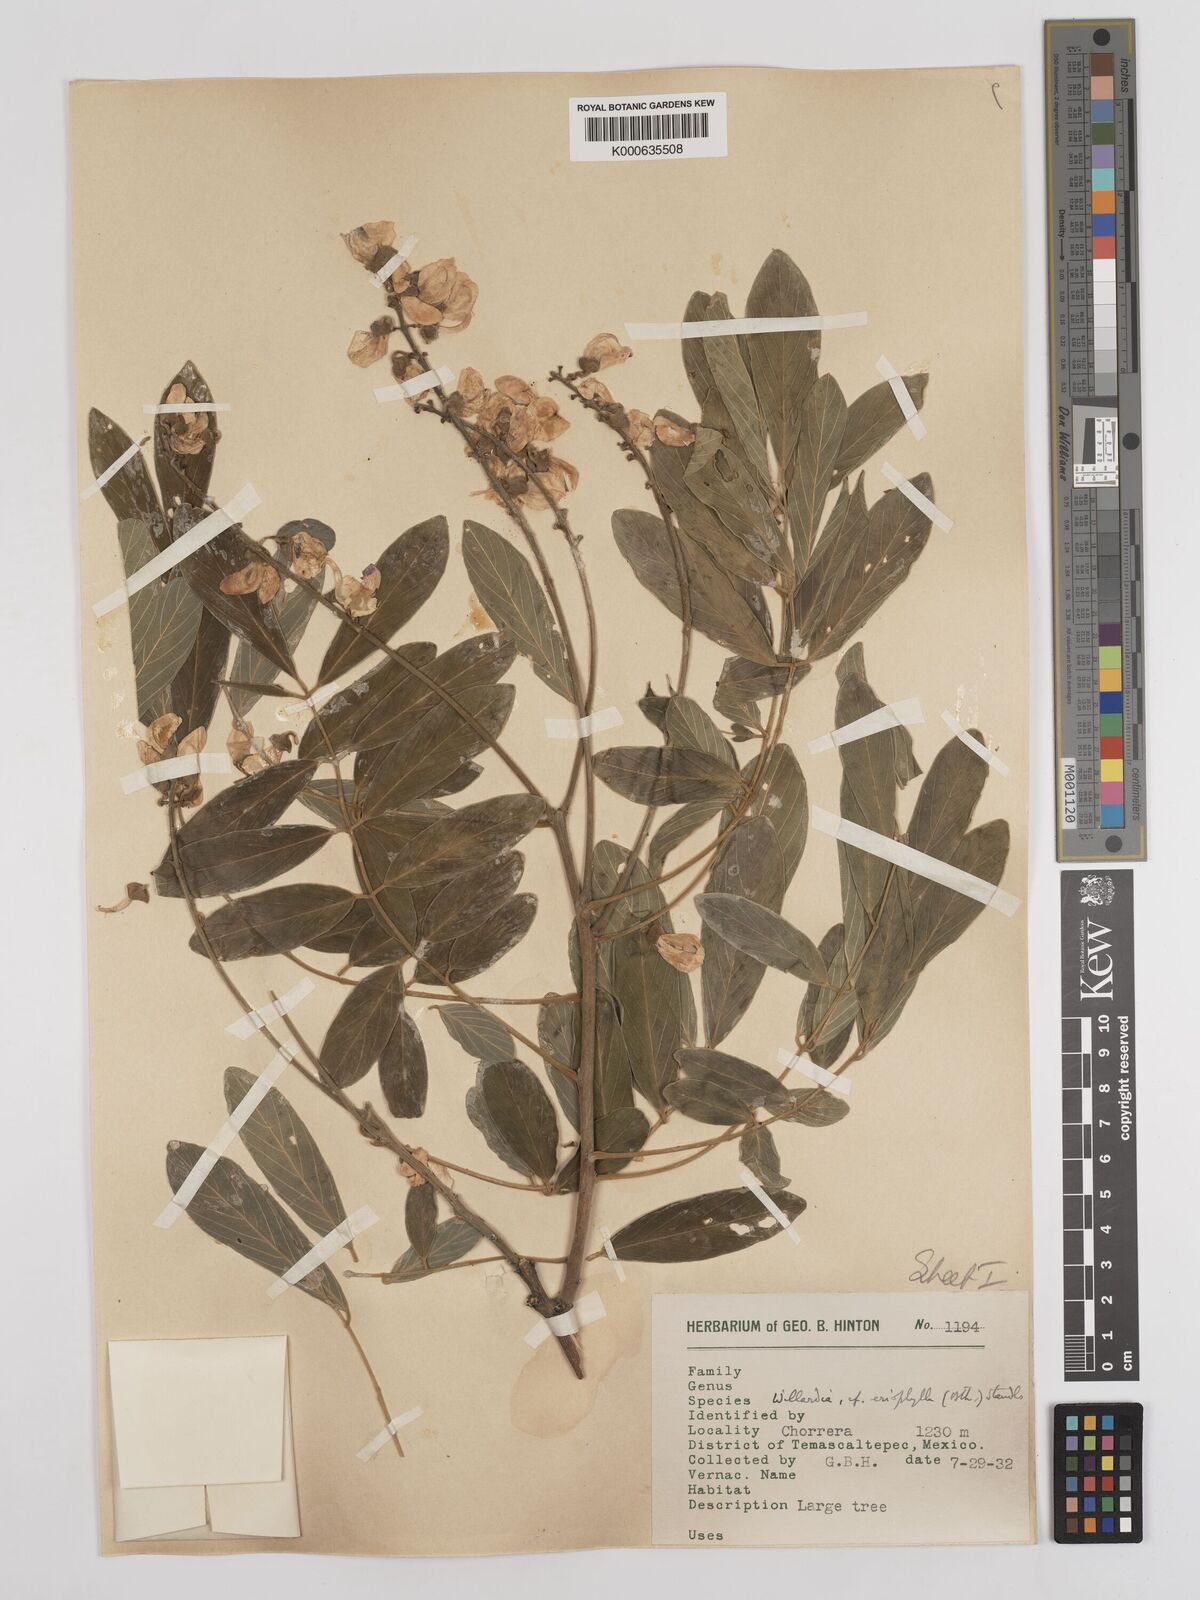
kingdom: Plantae
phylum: Tracheophyta
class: Magnoliopsida
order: Fabales
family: Fabaceae
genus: Lonchocarpus
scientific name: Lonchocarpus argyrotrichus
